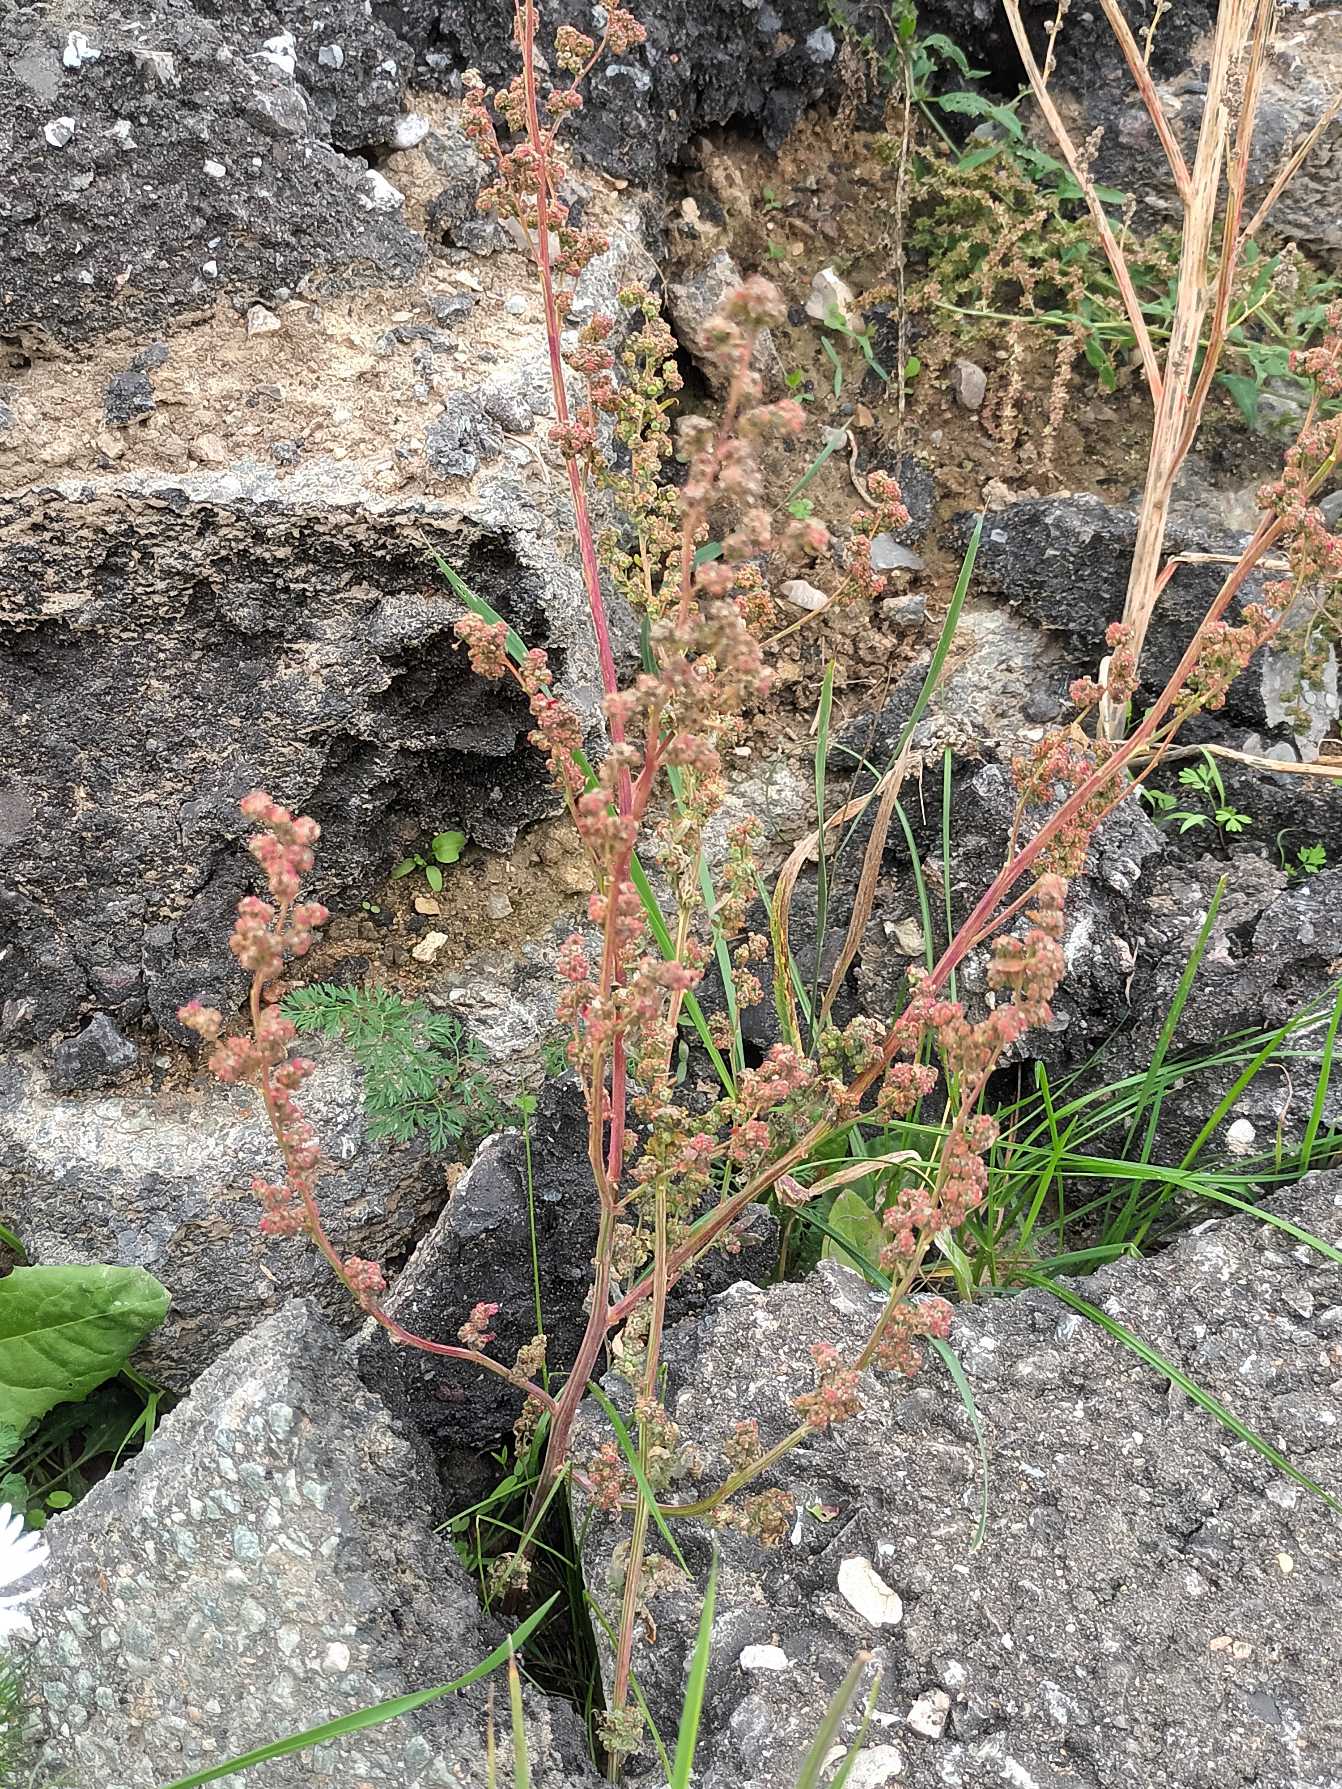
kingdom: Plantae
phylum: Tracheophyta
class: Magnoliopsida
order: Caryophyllales
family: Amaranthaceae
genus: Chenopodium
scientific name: Chenopodium album
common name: Hvidmelet gåsefod
